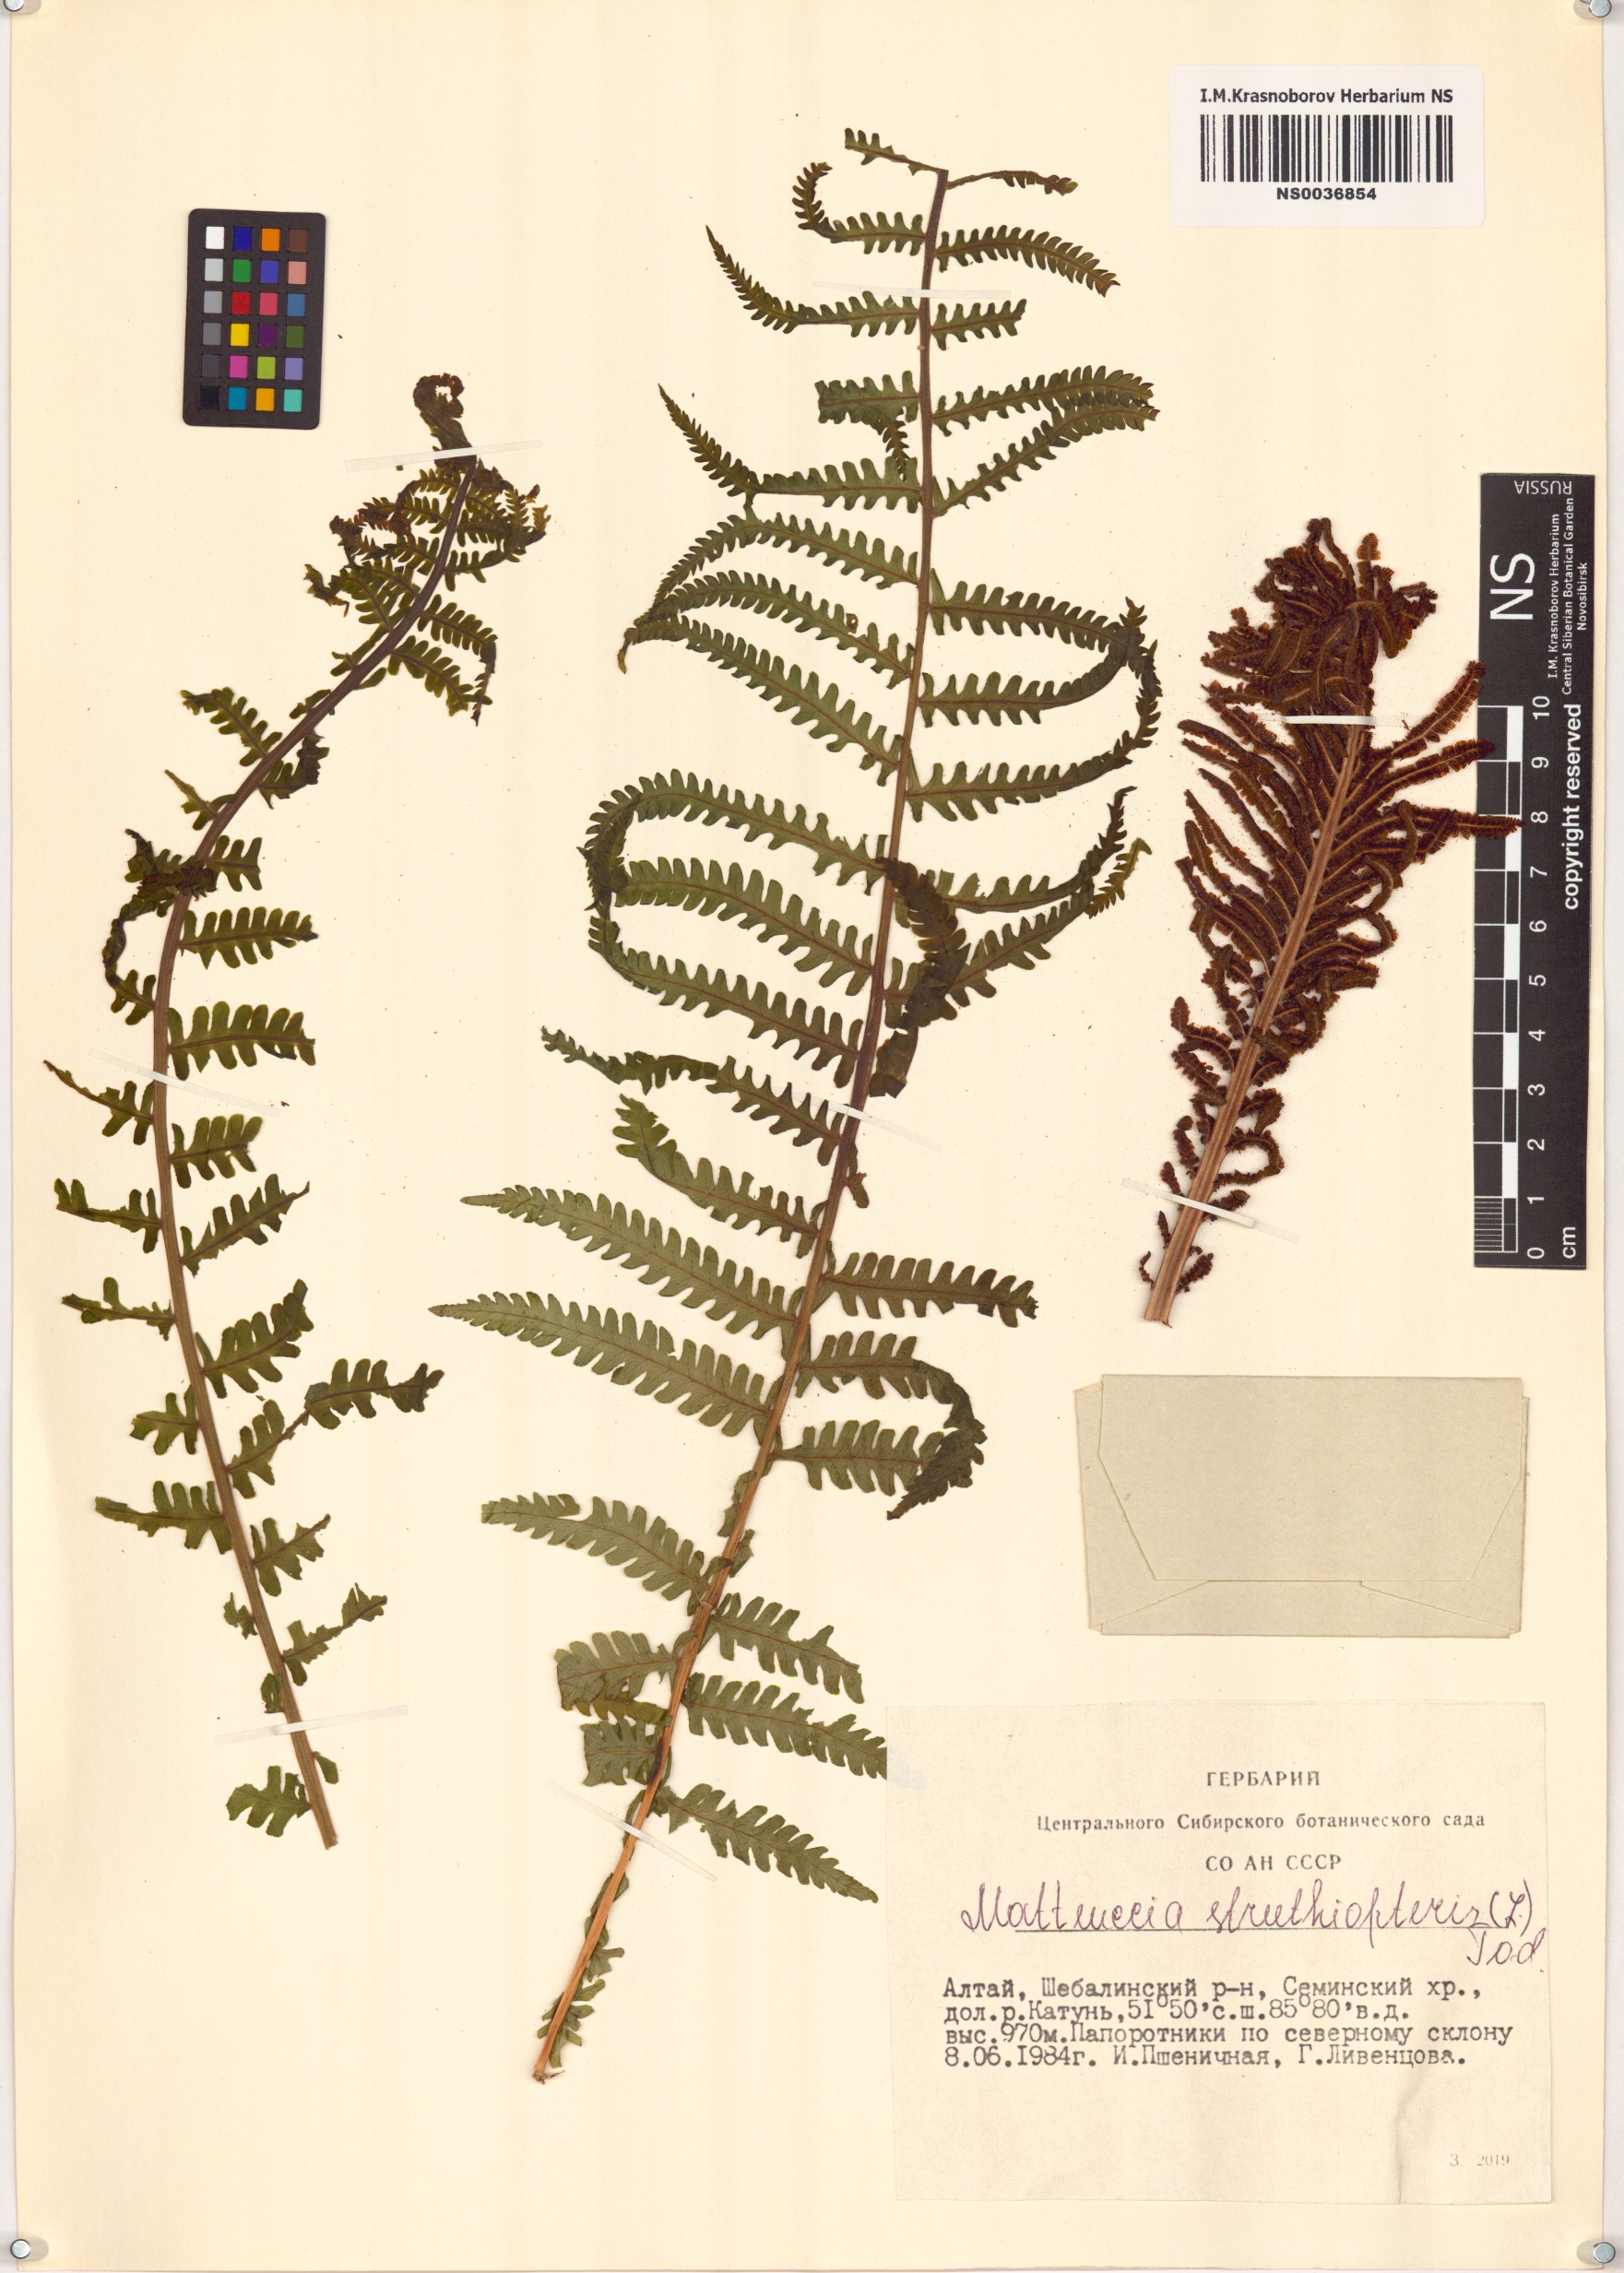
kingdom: Plantae
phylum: Tracheophyta
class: Polypodiopsida
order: Polypodiales
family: Onocleaceae
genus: Matteuccia
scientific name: Matteuccia struthiopteris
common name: Ostrich fern
